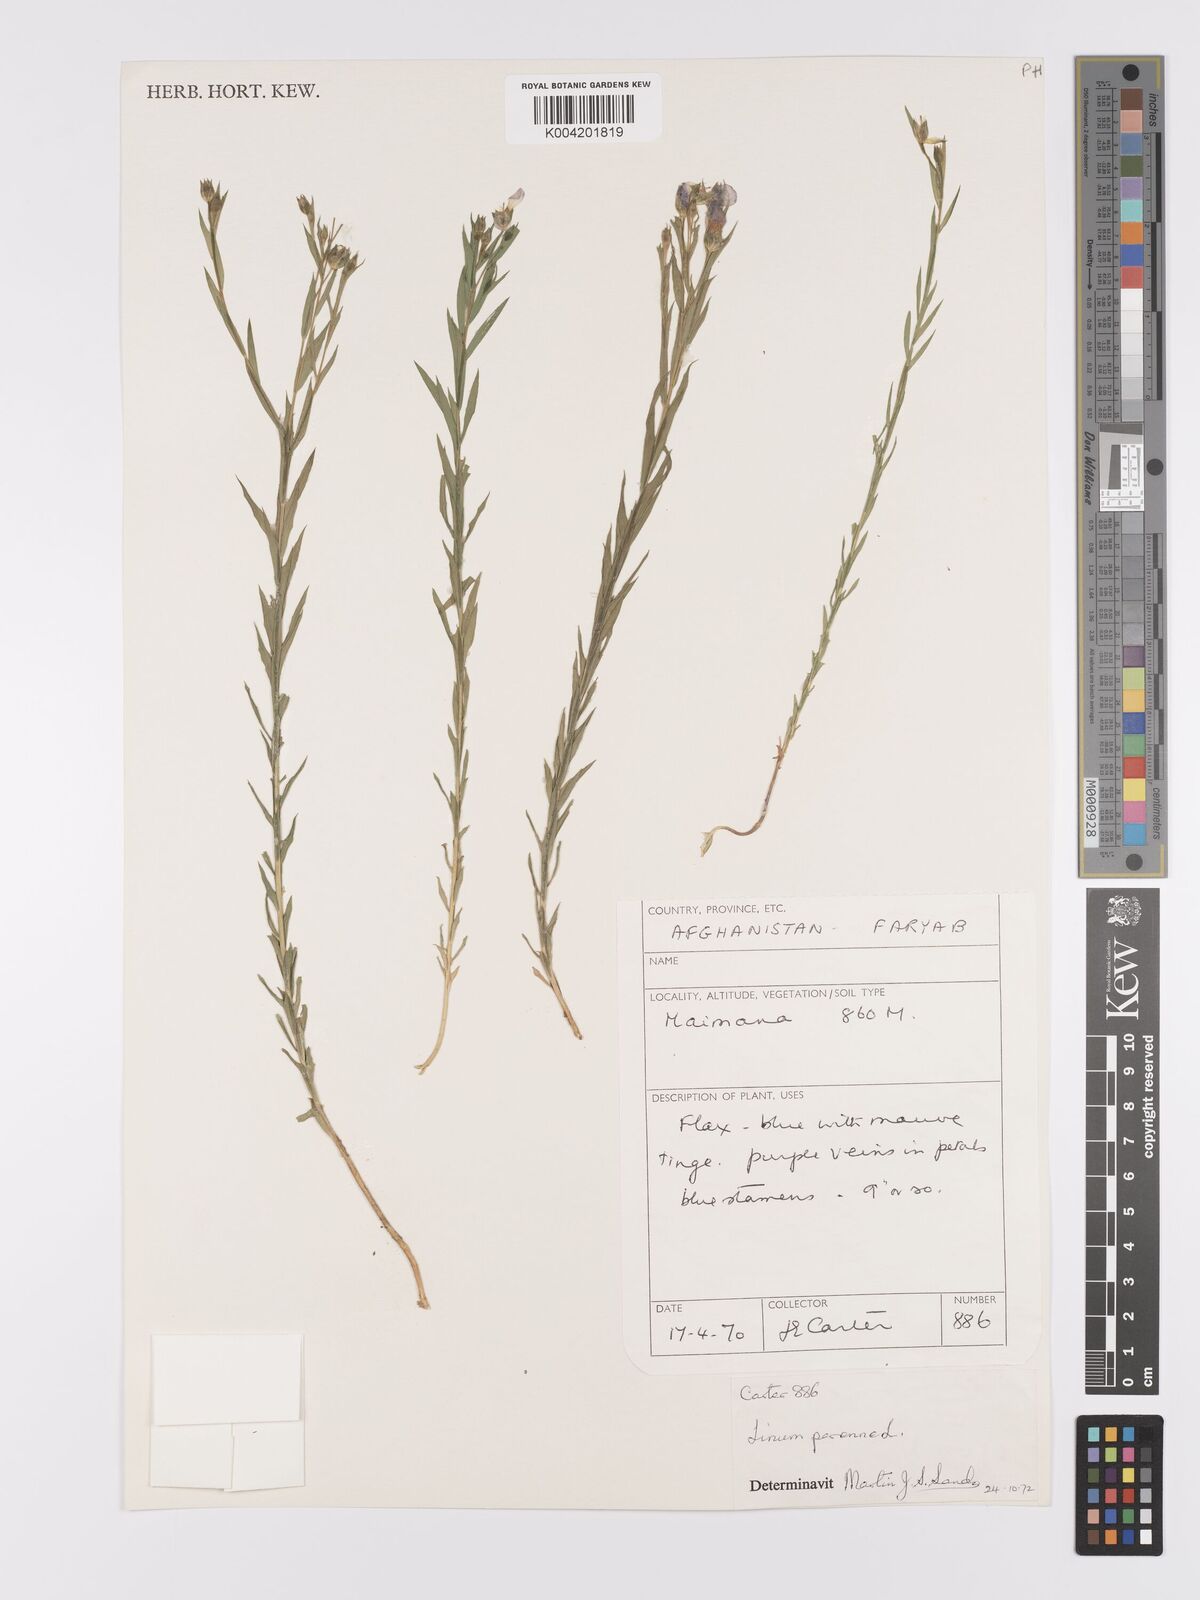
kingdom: Plantae
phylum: Tracheophyta
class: Magnoliopsida
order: Malpighiales
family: Linaceae
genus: Linum
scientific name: Linum
